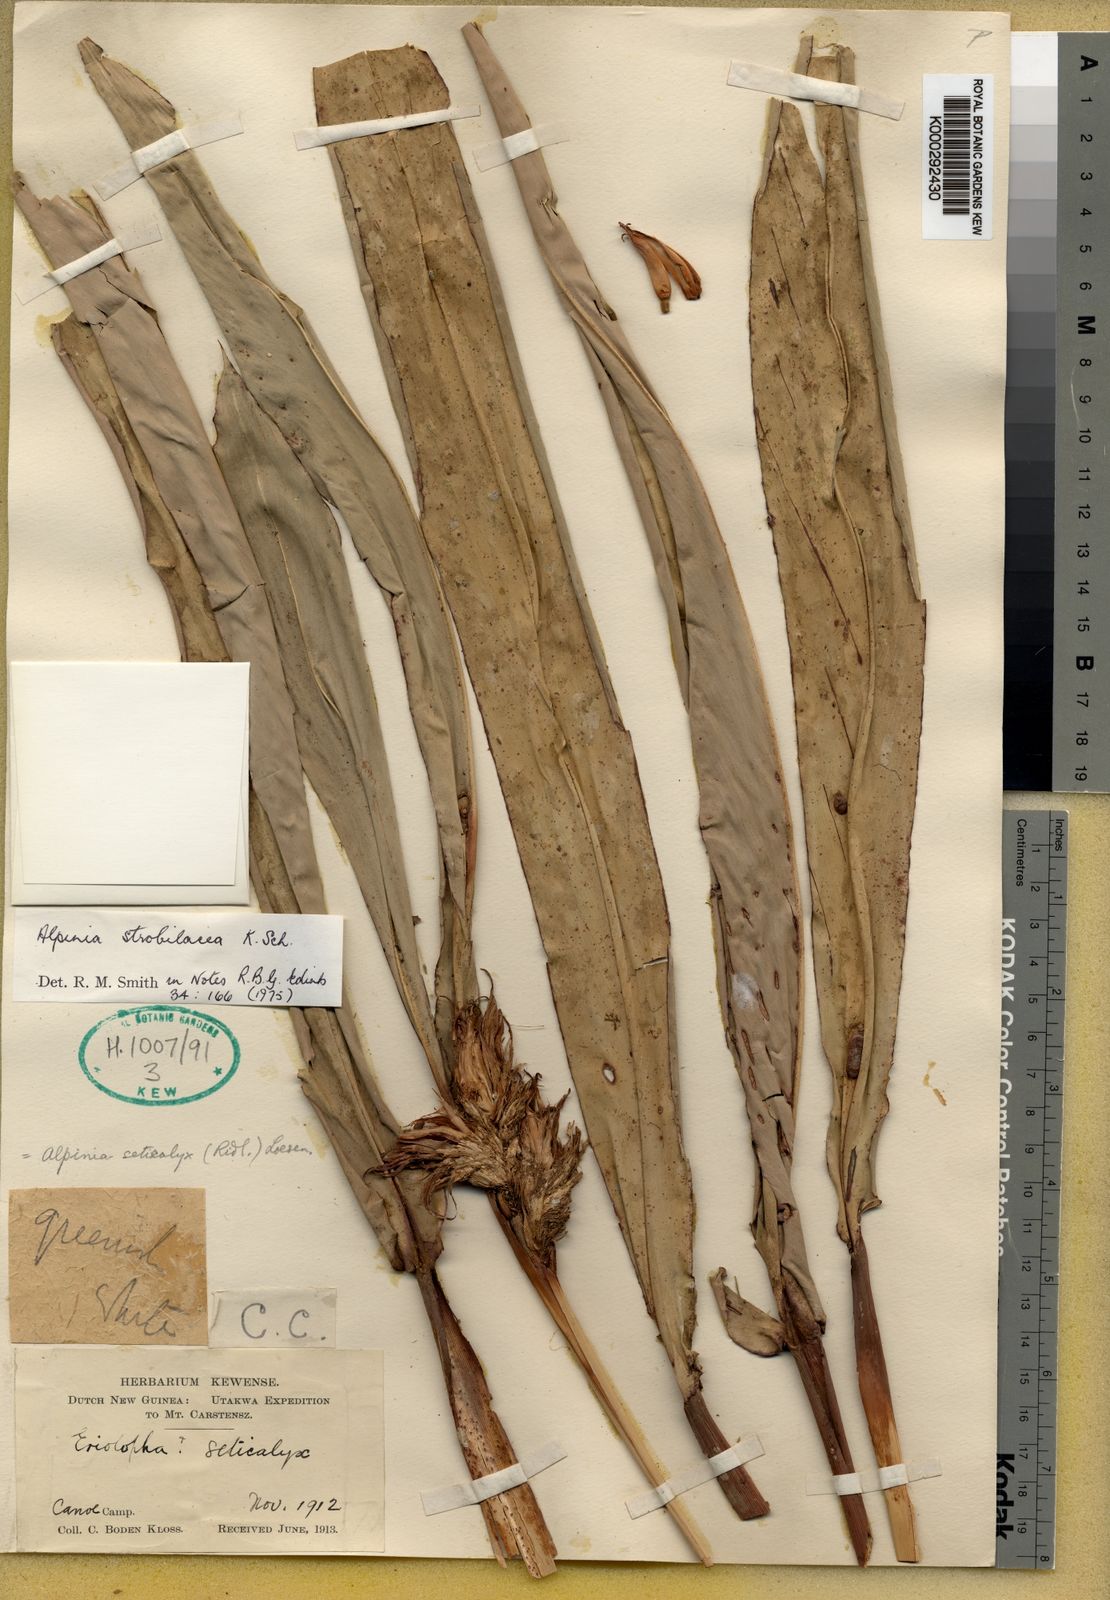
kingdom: Plantae
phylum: Tracheophyta
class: Liliopsida
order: Zingiberales
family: Zingiberaceae
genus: Alpinia
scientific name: Alpinia strobilacea
